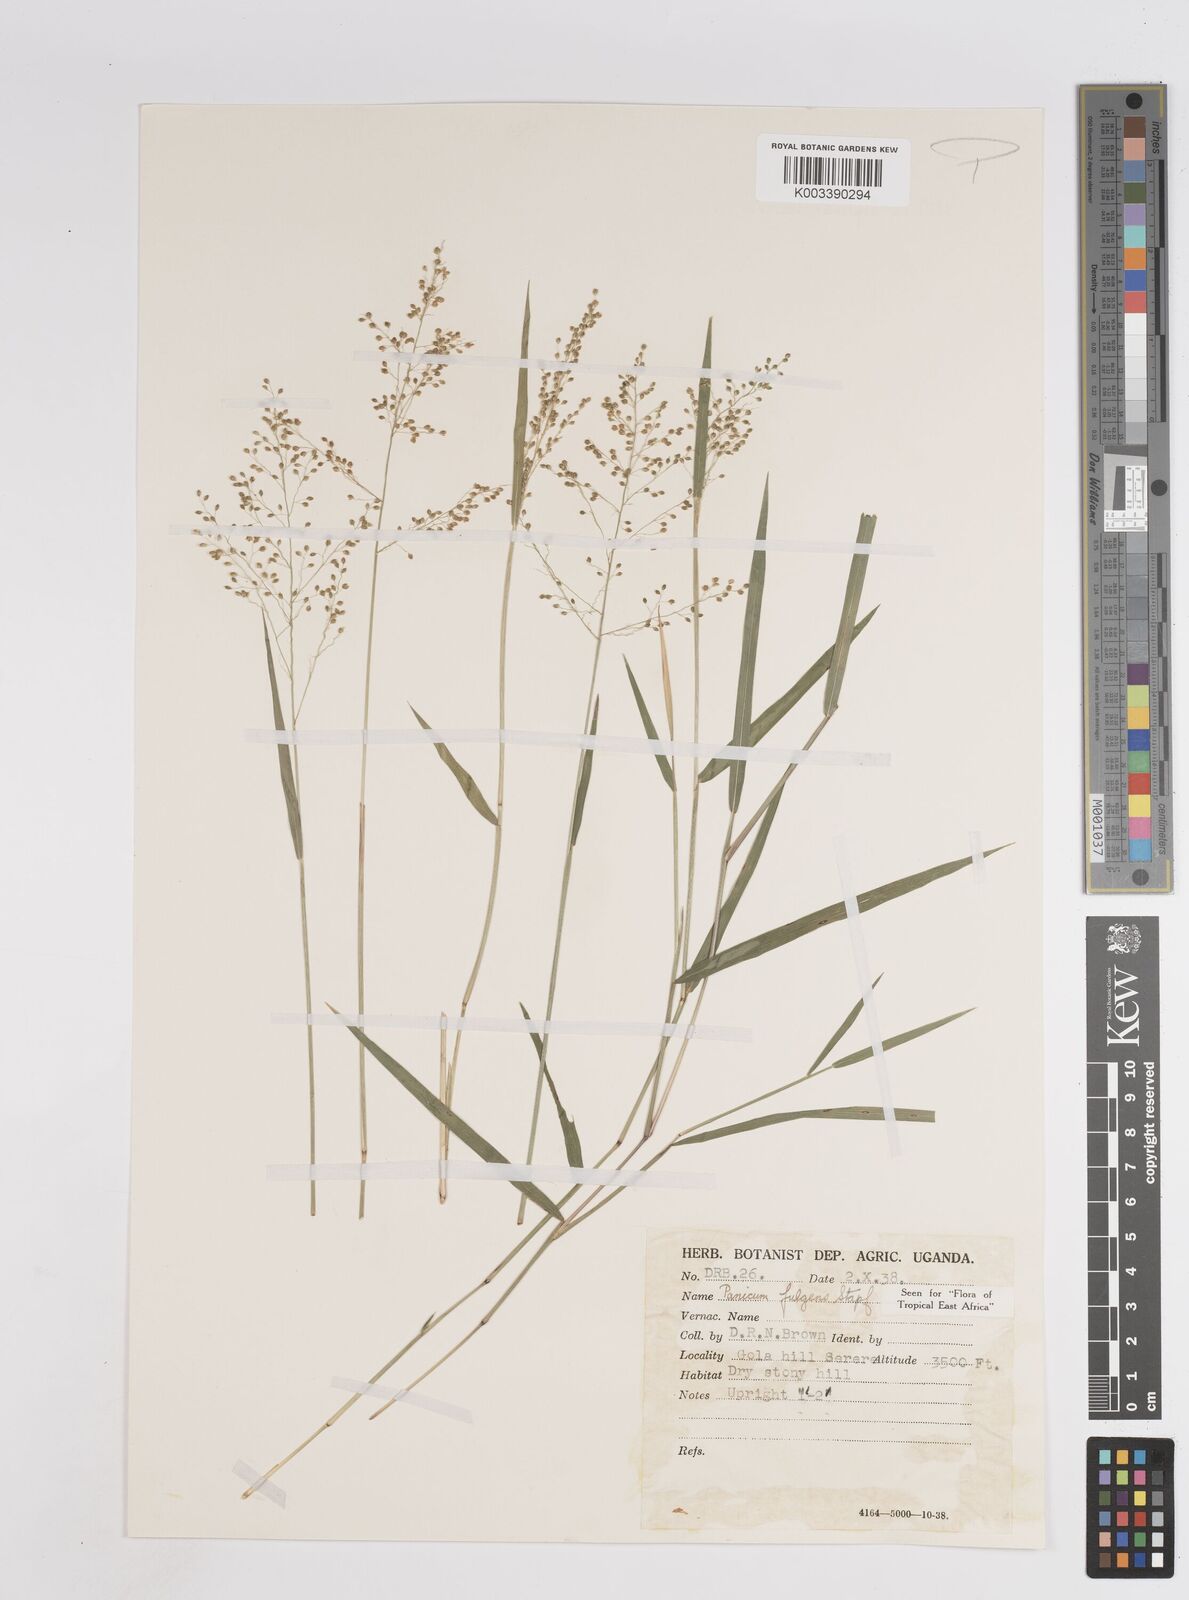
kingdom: Plantae
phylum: Tracheophyta
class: Liliopsida
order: Poales
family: Poaceae
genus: Trichanthecium
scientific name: Trichanthecium nervatum
